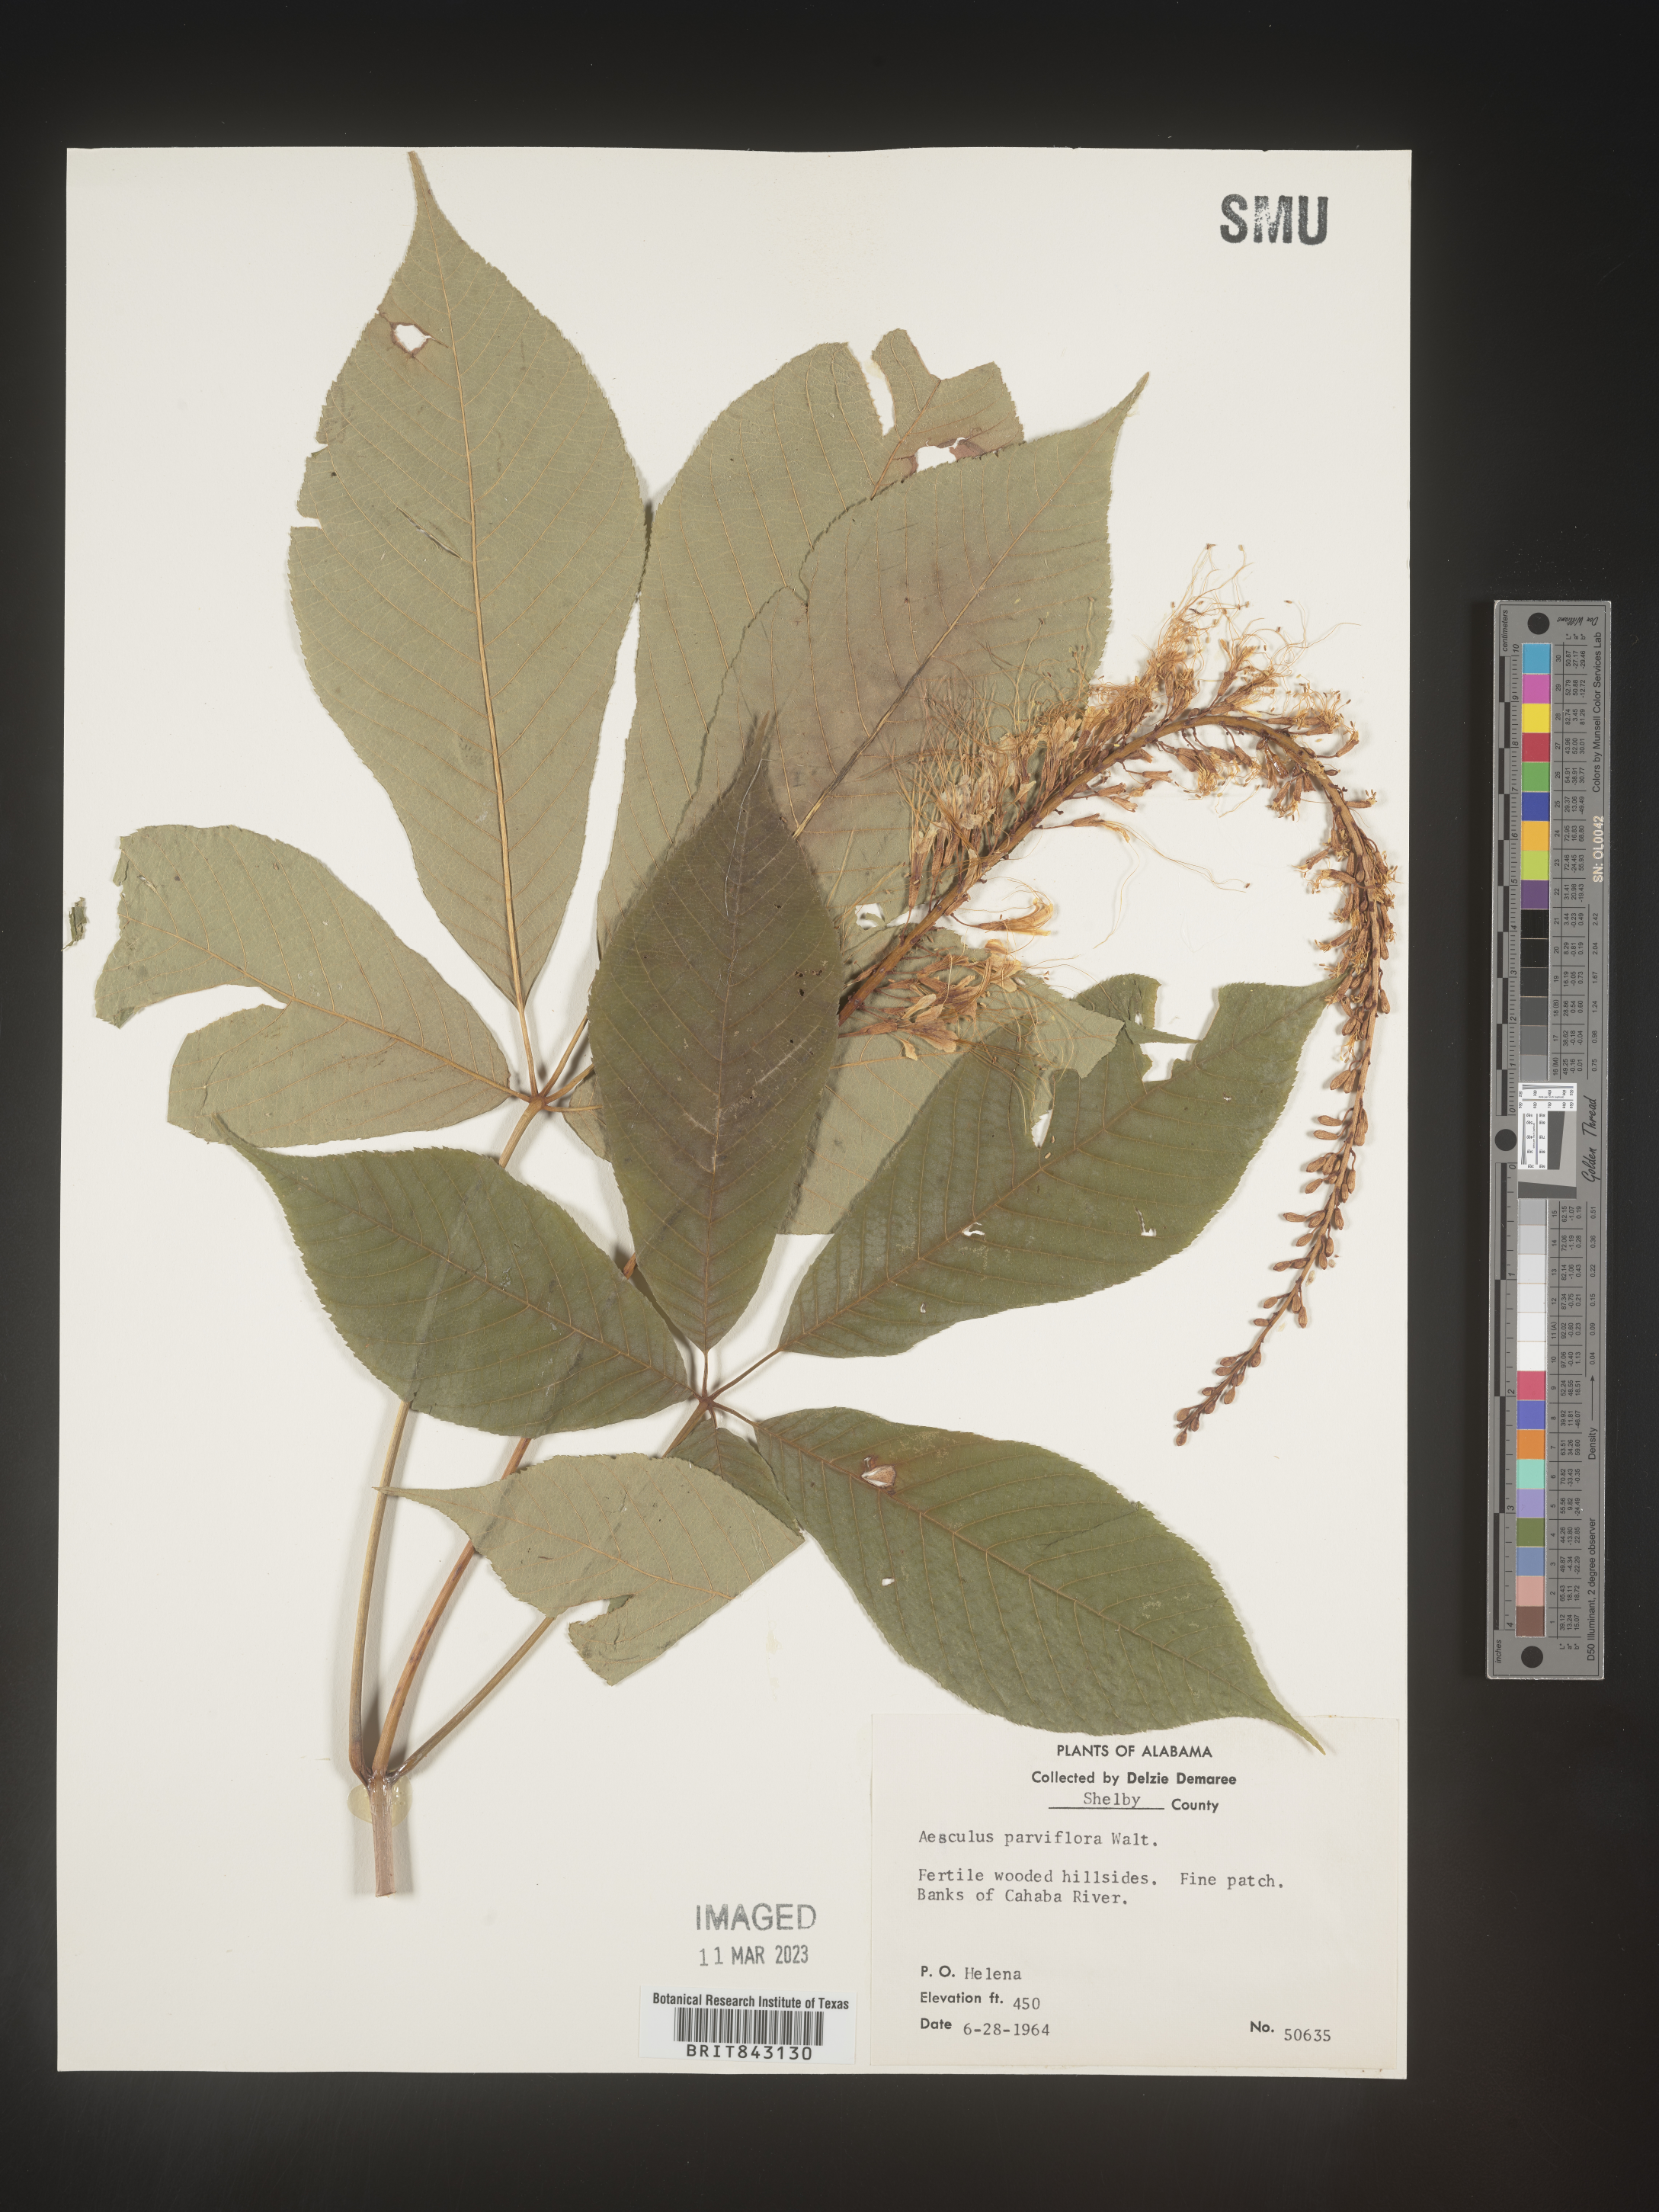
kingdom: Plantae
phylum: Tracheophyta
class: Magnoliopsida
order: Sapindales
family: Sapindaceae
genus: Aesculus
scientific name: Aesculus
